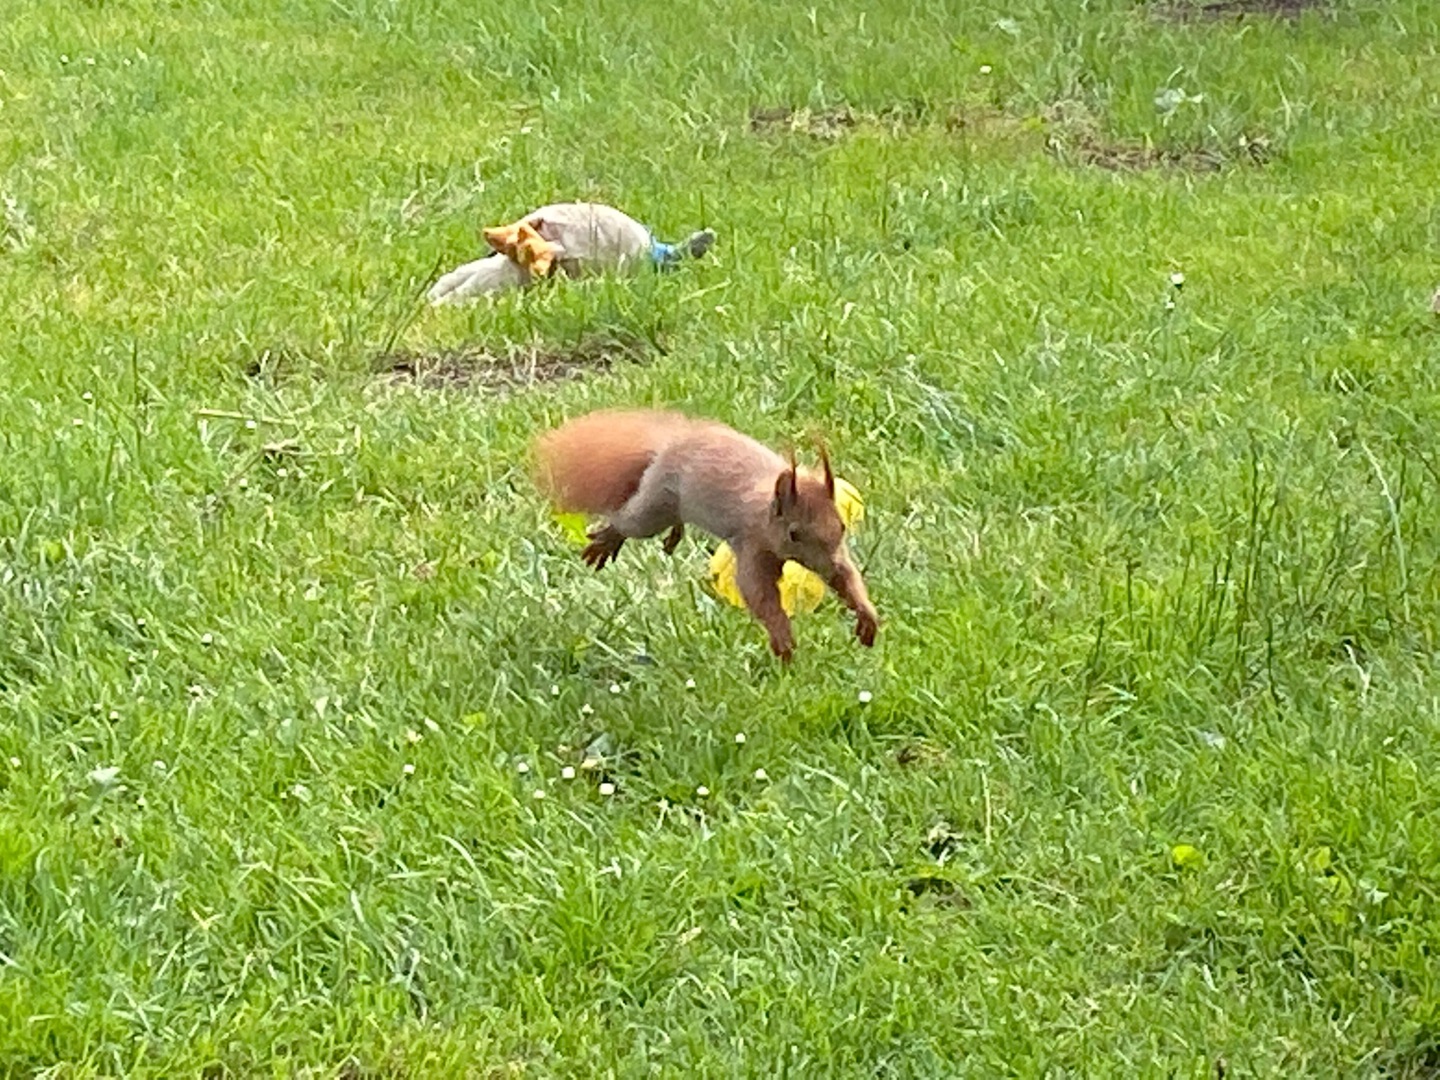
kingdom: Animalia
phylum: Chordata
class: Mammalia
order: Rodentia
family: Sciuridae
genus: Sciurus
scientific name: Sciurus vulgaris
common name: Egern
